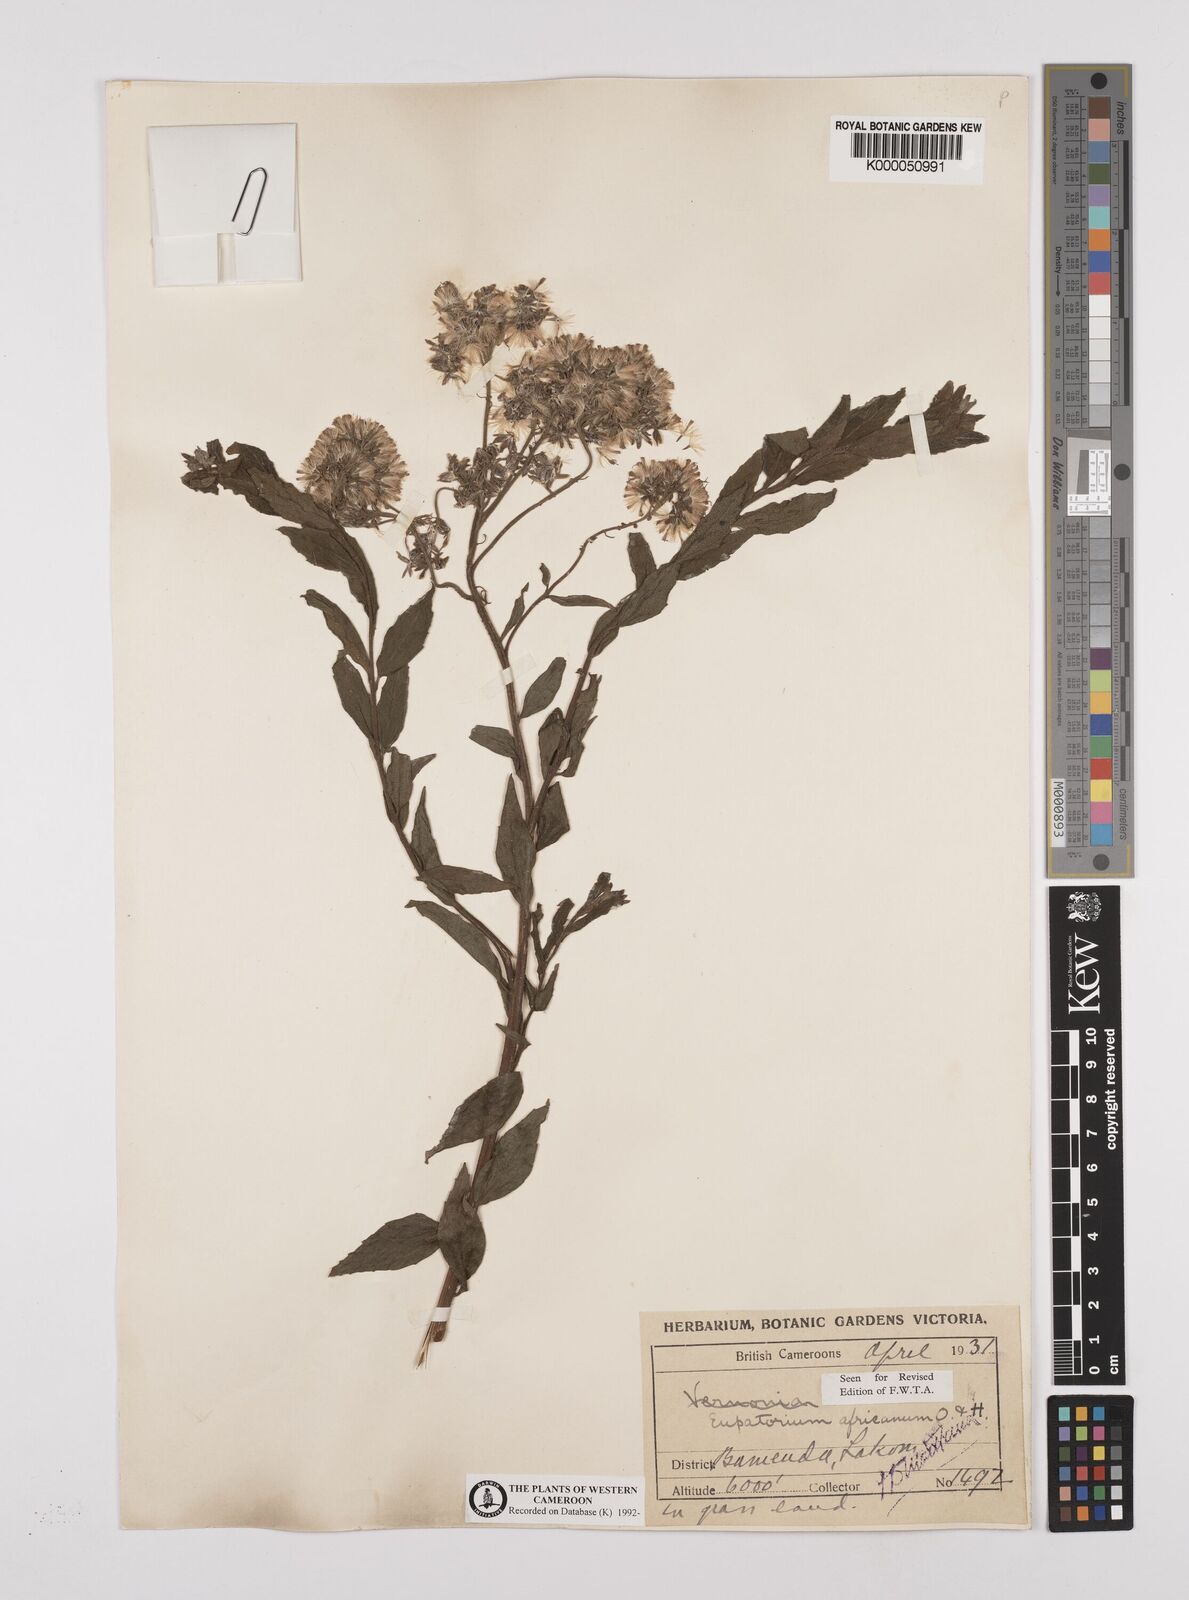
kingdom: Plantae
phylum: Tracheophyta
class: Magnoliopsida
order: Asterales
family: Asteraceae
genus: Stomatanthes
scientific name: Stomatanthes africanus
